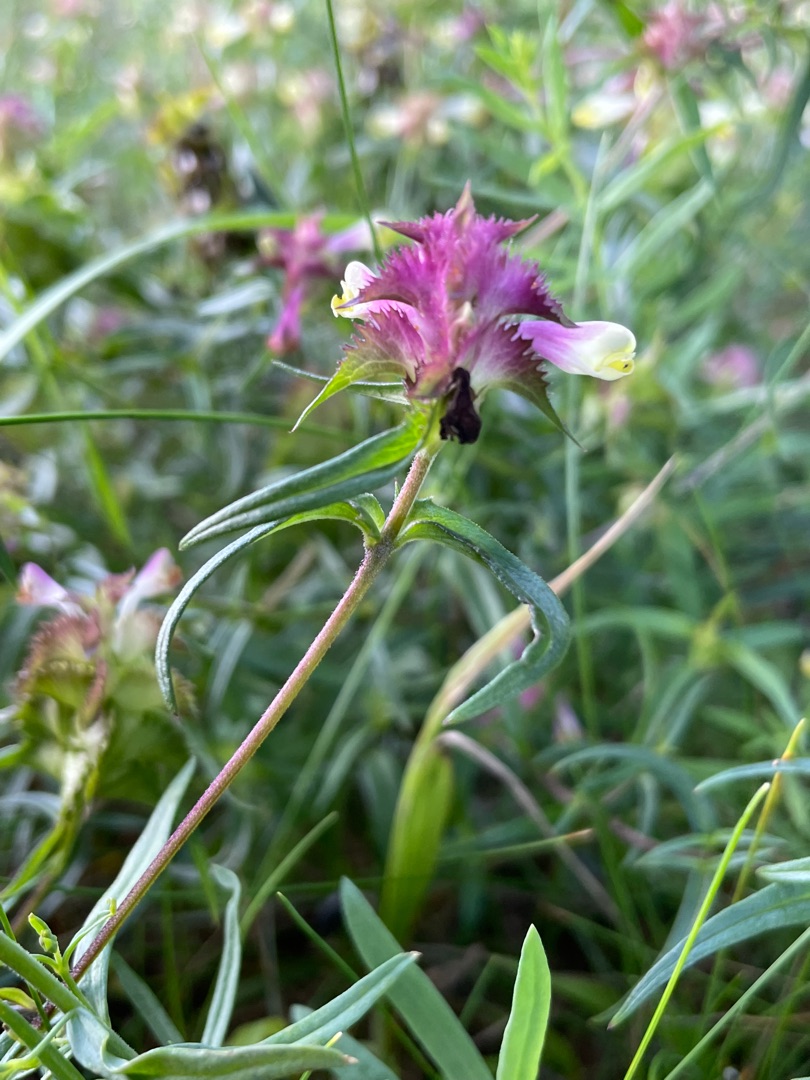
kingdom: Plantae
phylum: Tracheophyta
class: Magnoliopsida
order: Lamiales
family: Orobanchaceae
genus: Melampyrum
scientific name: Melampyrum cristatum
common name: Kantet kohvede
